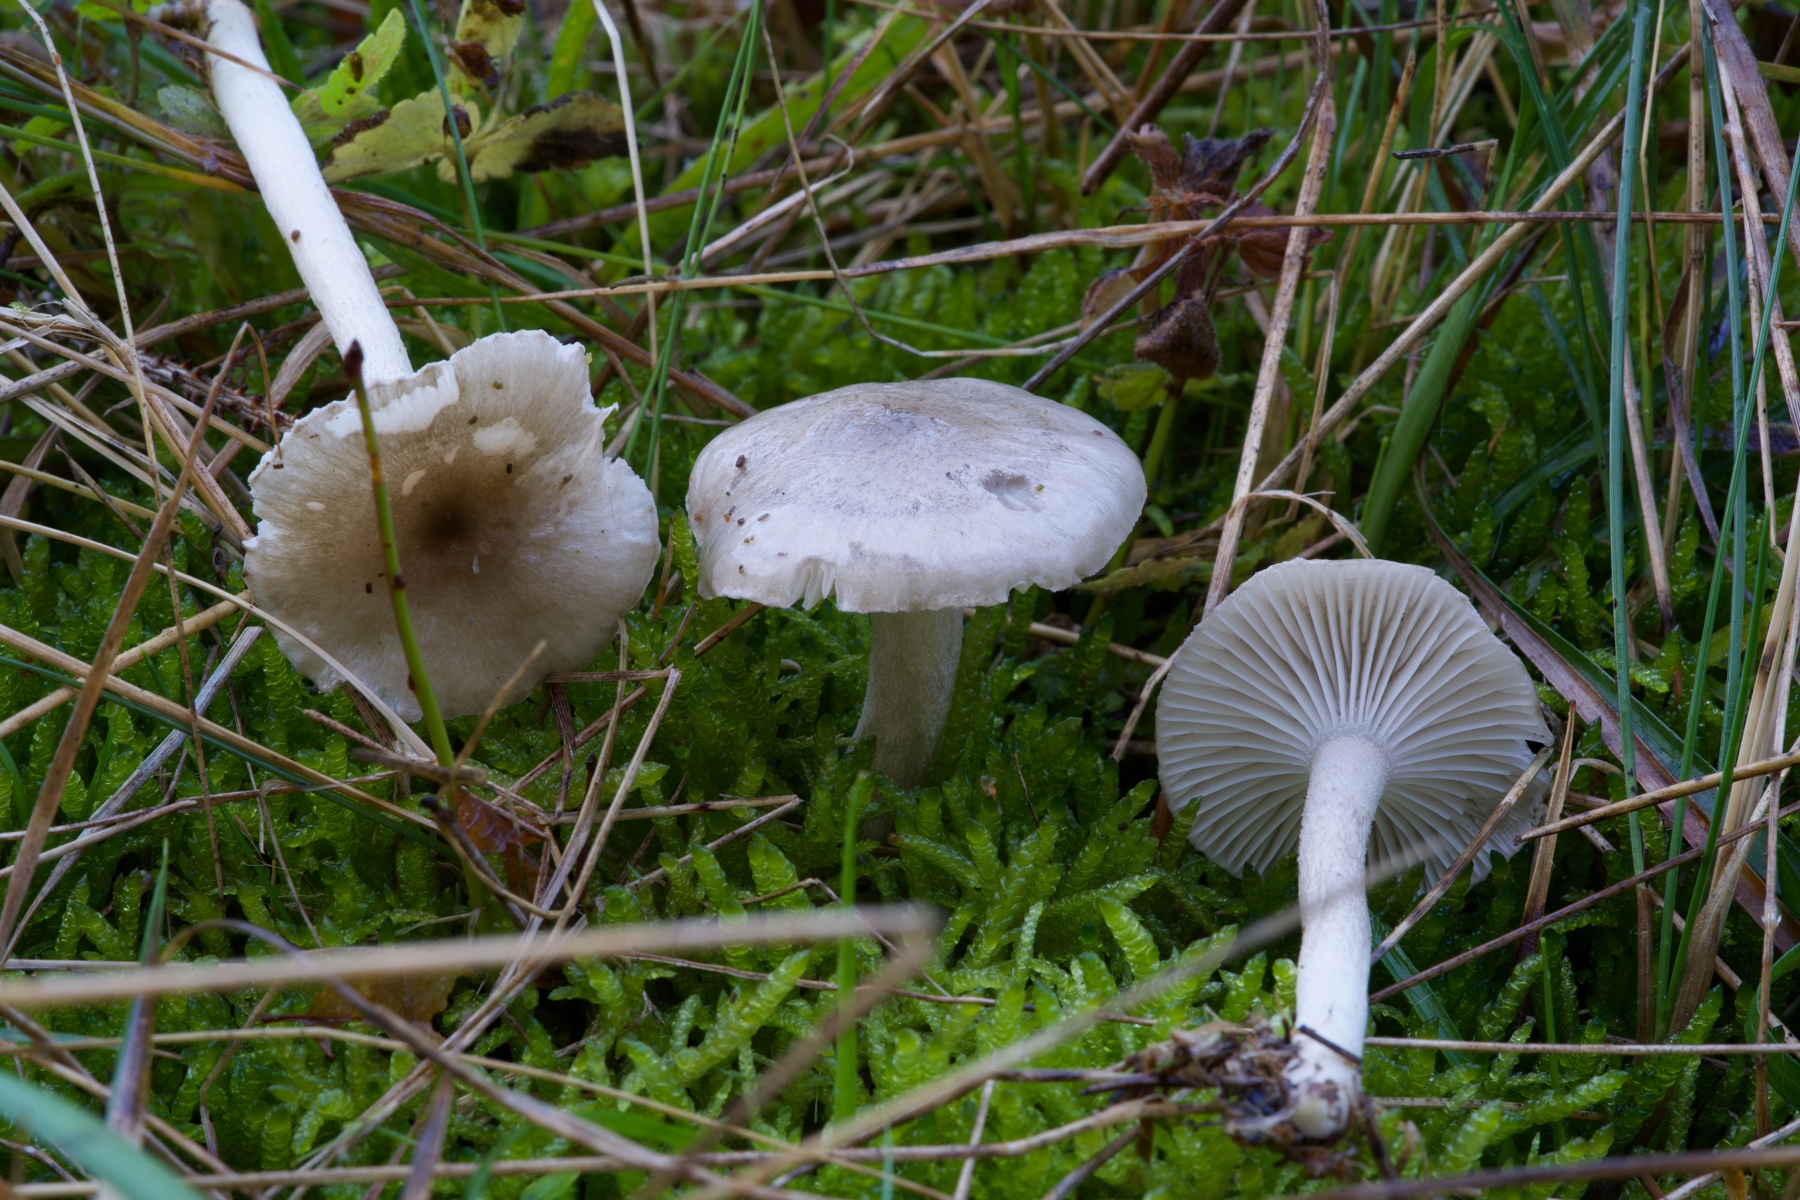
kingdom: Fungi
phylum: Basidiomycota
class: Agaricomycetes
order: Agaricales
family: Hygrophoraceae
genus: Hygrophorus
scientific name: Hygrophorus pustulatus
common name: mørkprikket sneglehat
